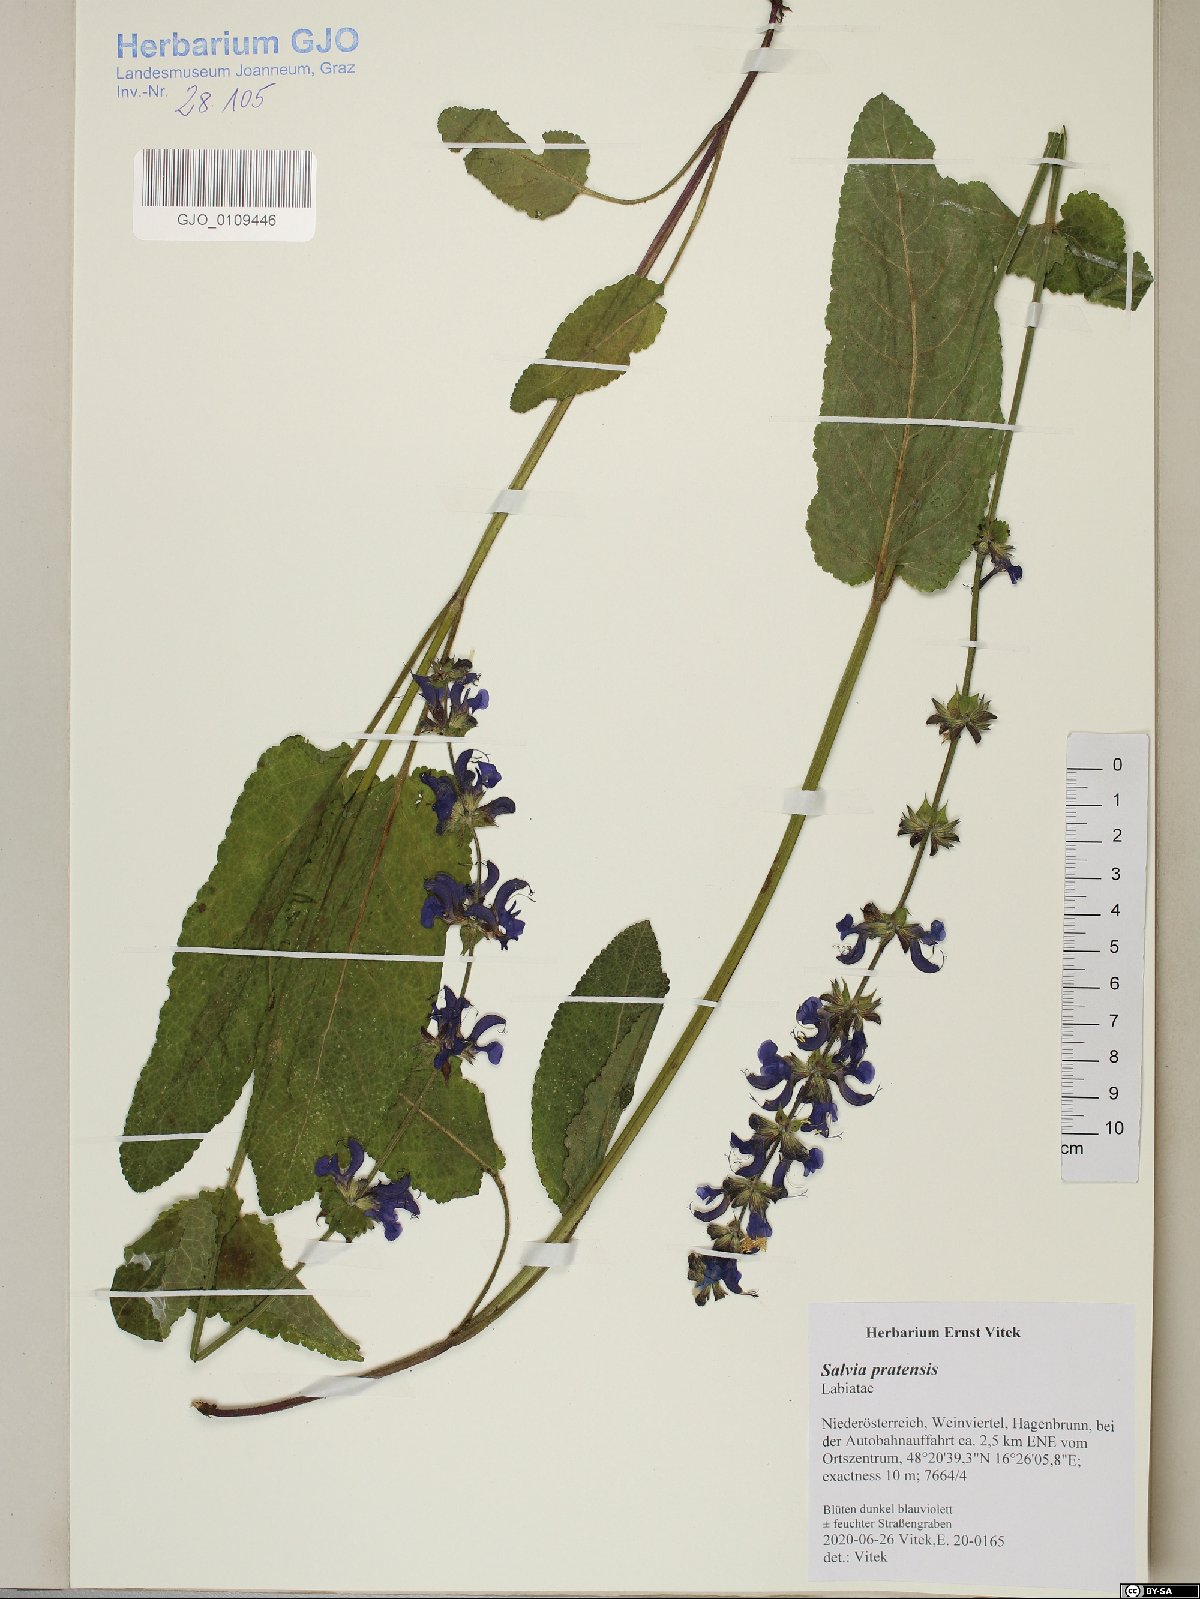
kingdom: Plantae
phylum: Tracheophyta
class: Magnoliopsida
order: Lamiales
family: Lamiaceae
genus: Salvia
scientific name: Salvia pratensis
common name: Meadow sage
